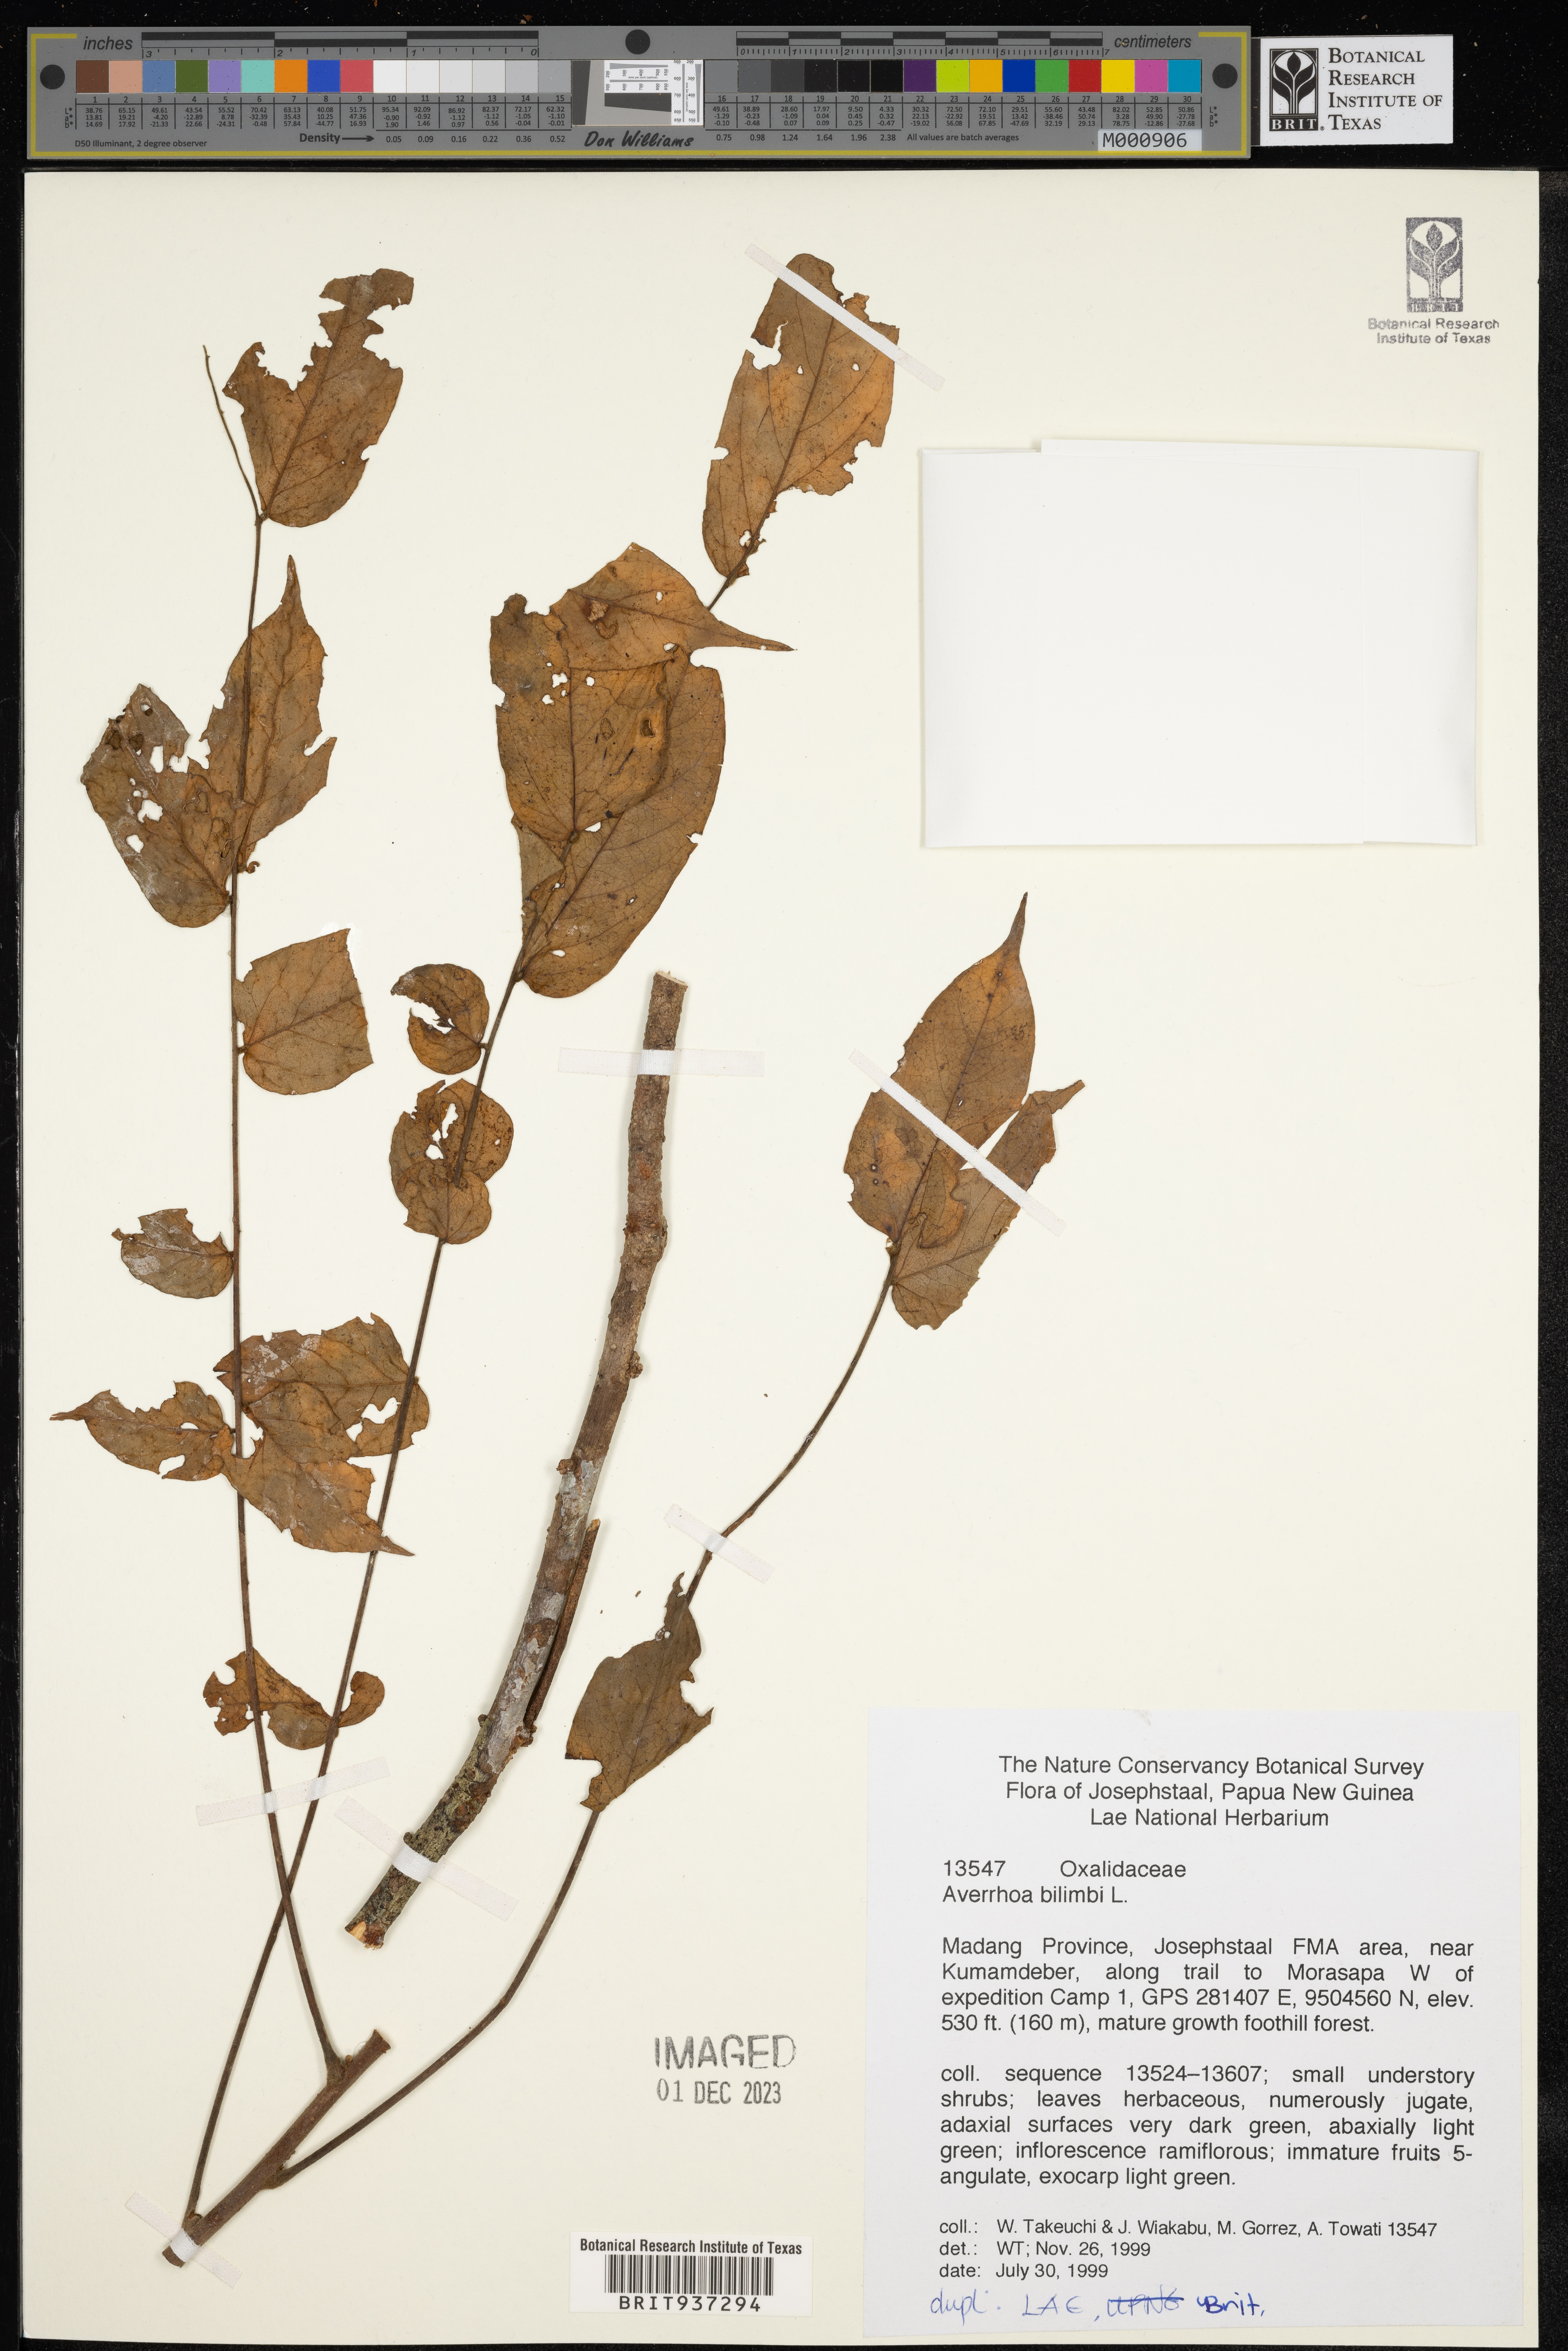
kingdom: Plantae
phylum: Tracheophyta
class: Magnoliopsida
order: Oxalidales
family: Oxalidaceae
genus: Averrhoa
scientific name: Averrhoa
